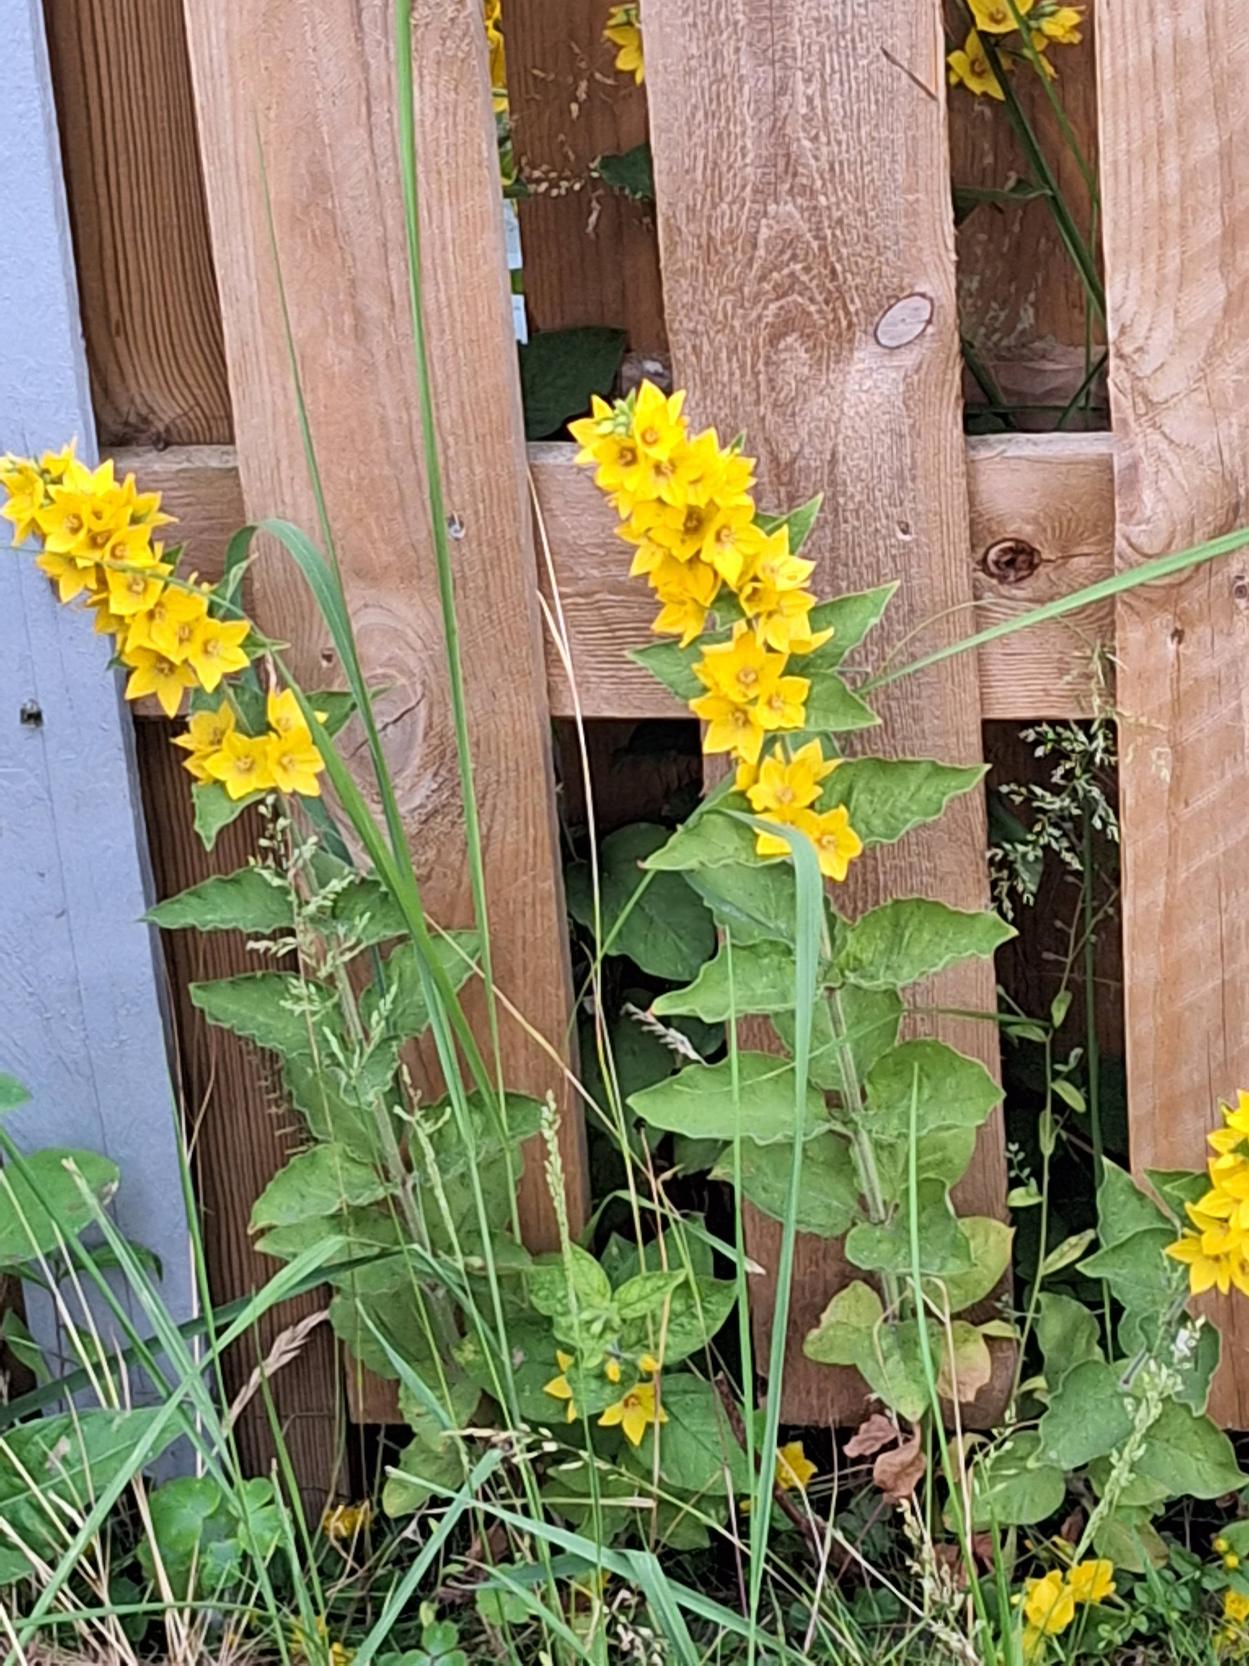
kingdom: Plantae
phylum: Tracheophyta
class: Magnoliopsida
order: Ericales
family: Primulaceae
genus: Lysimachia
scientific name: Lysimachia punctata
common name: Prikbladet fredløs
